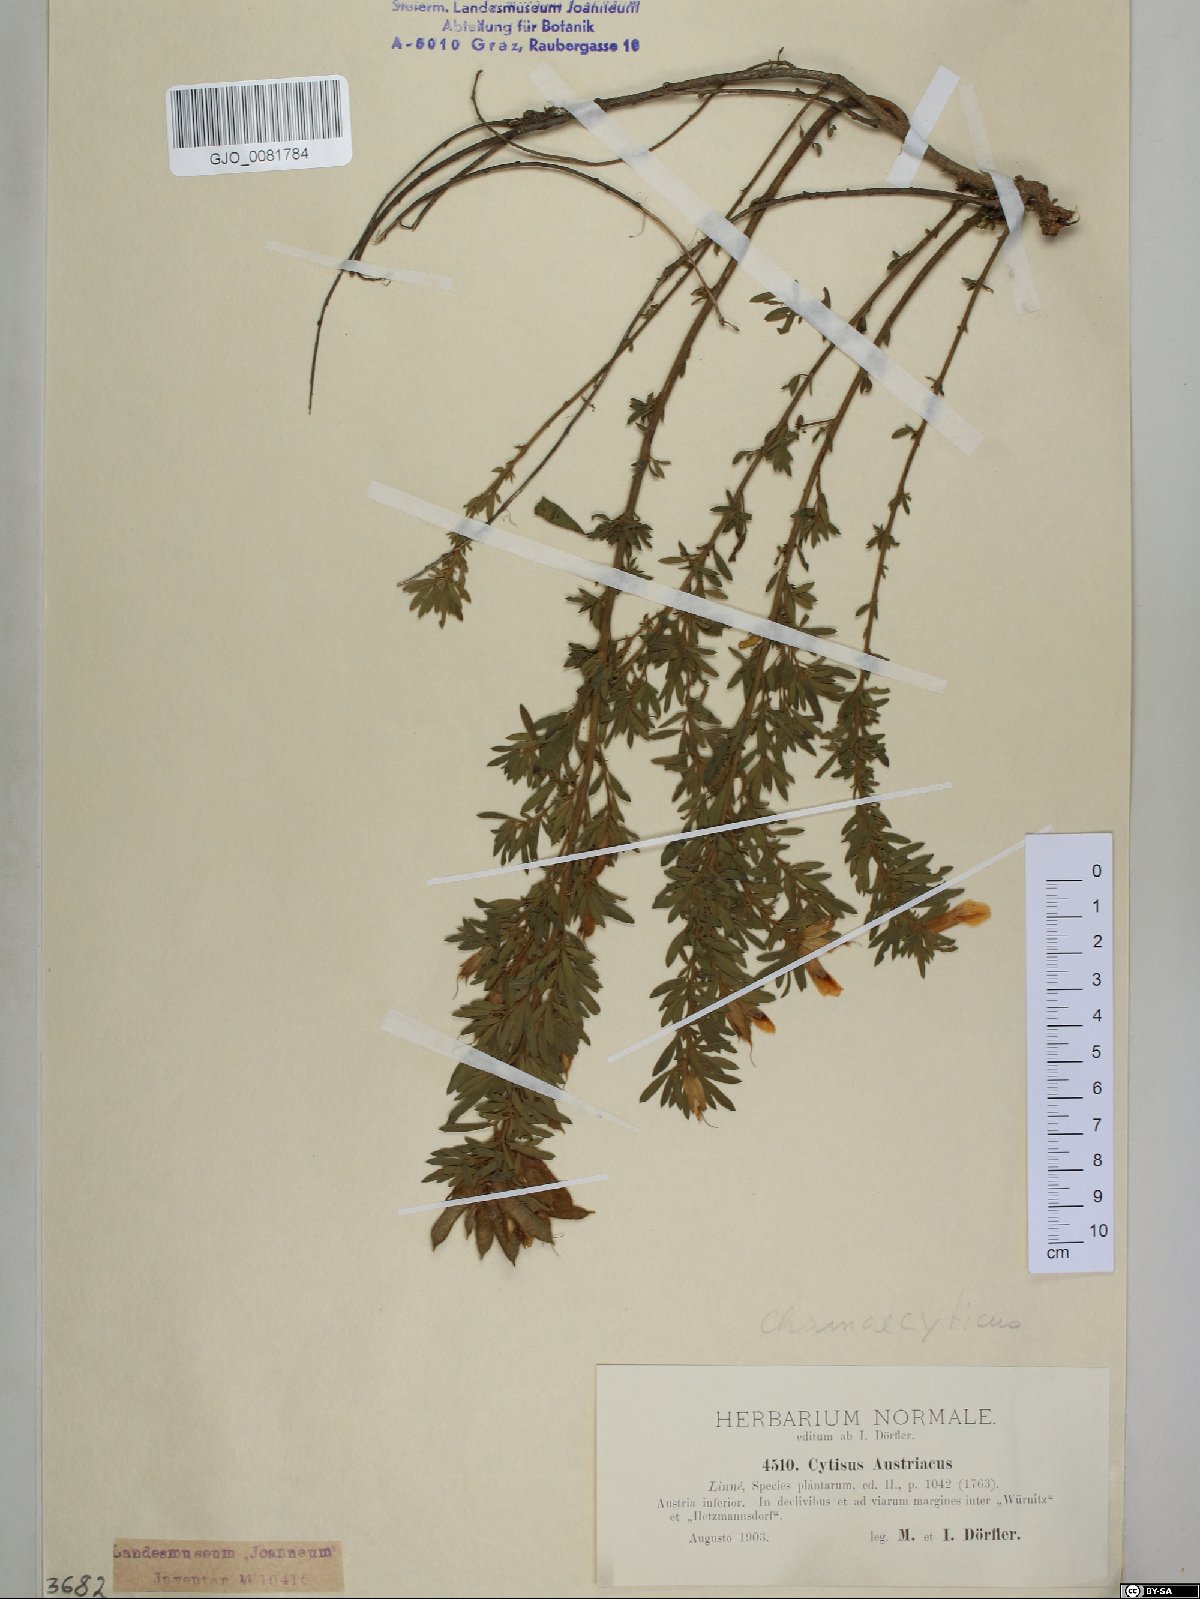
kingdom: Plantae
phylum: Tracheophyta
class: Magnoliopsida
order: Fabales
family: Fabaceae
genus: Chamaecytisus
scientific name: Chamaecytisus austriacus
